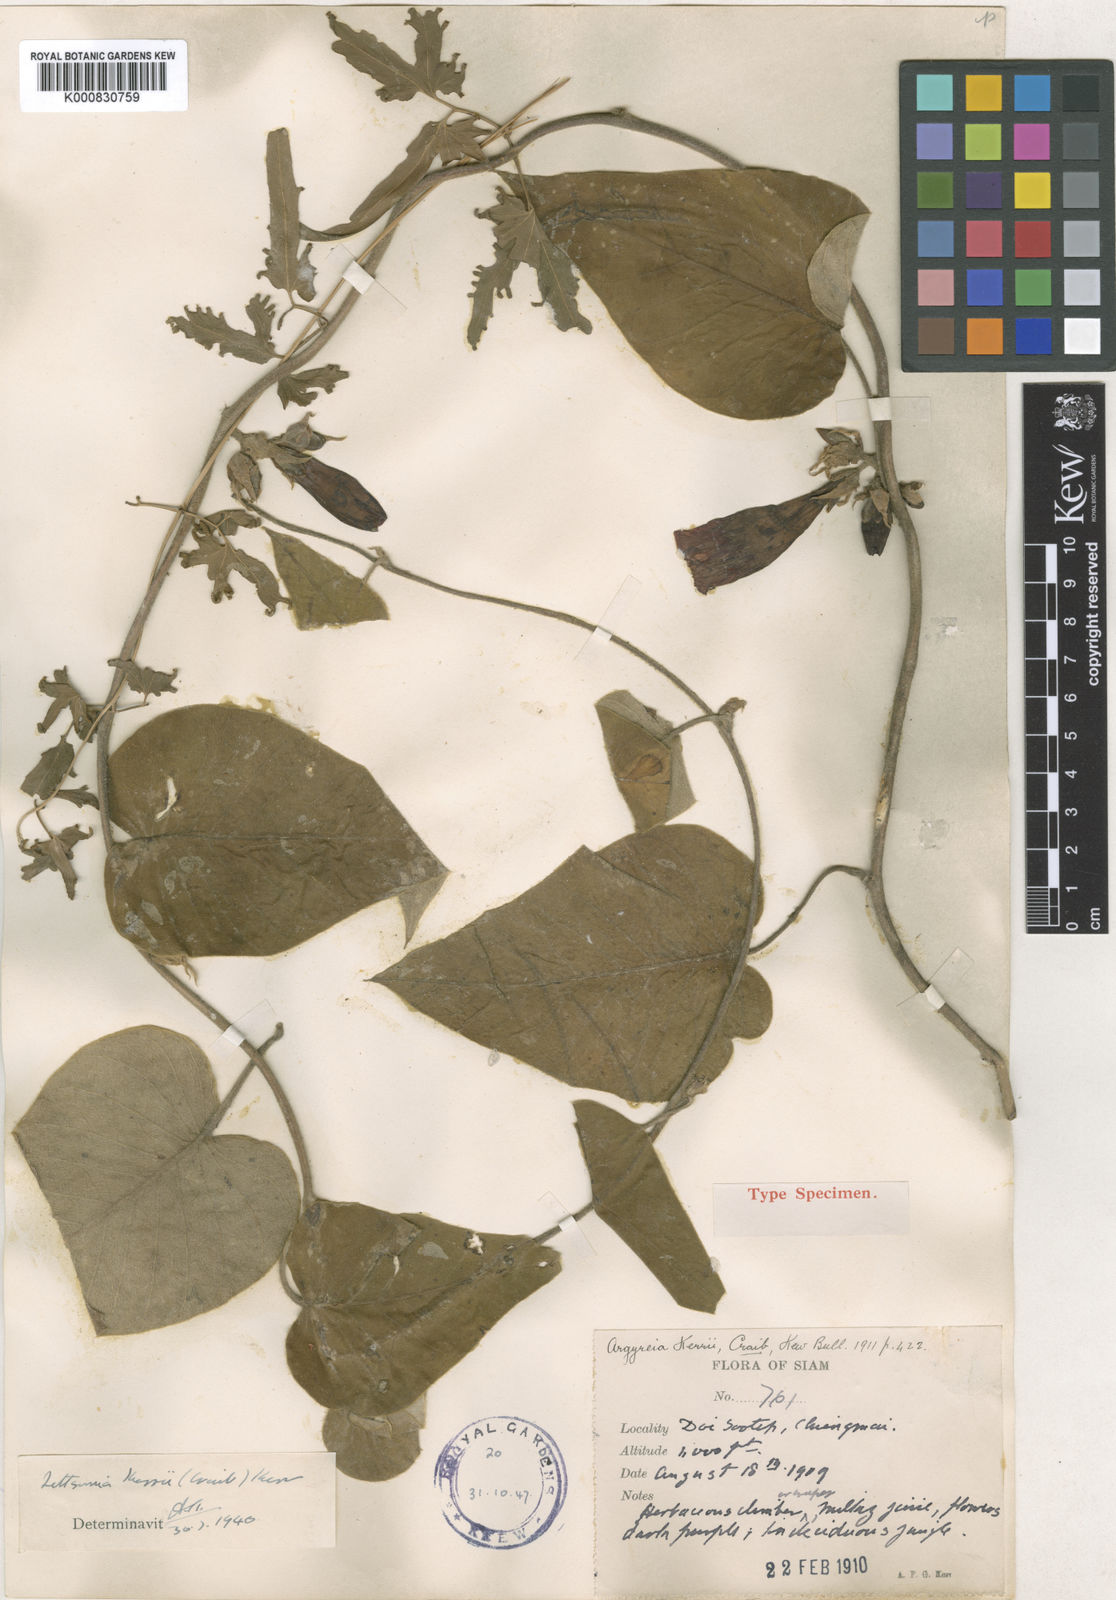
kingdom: Plantae
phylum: Tracheophyta
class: Magnoliopsida
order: Solanales
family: Convolvulaceae
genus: Argyreia
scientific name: Argyreia kerrii
